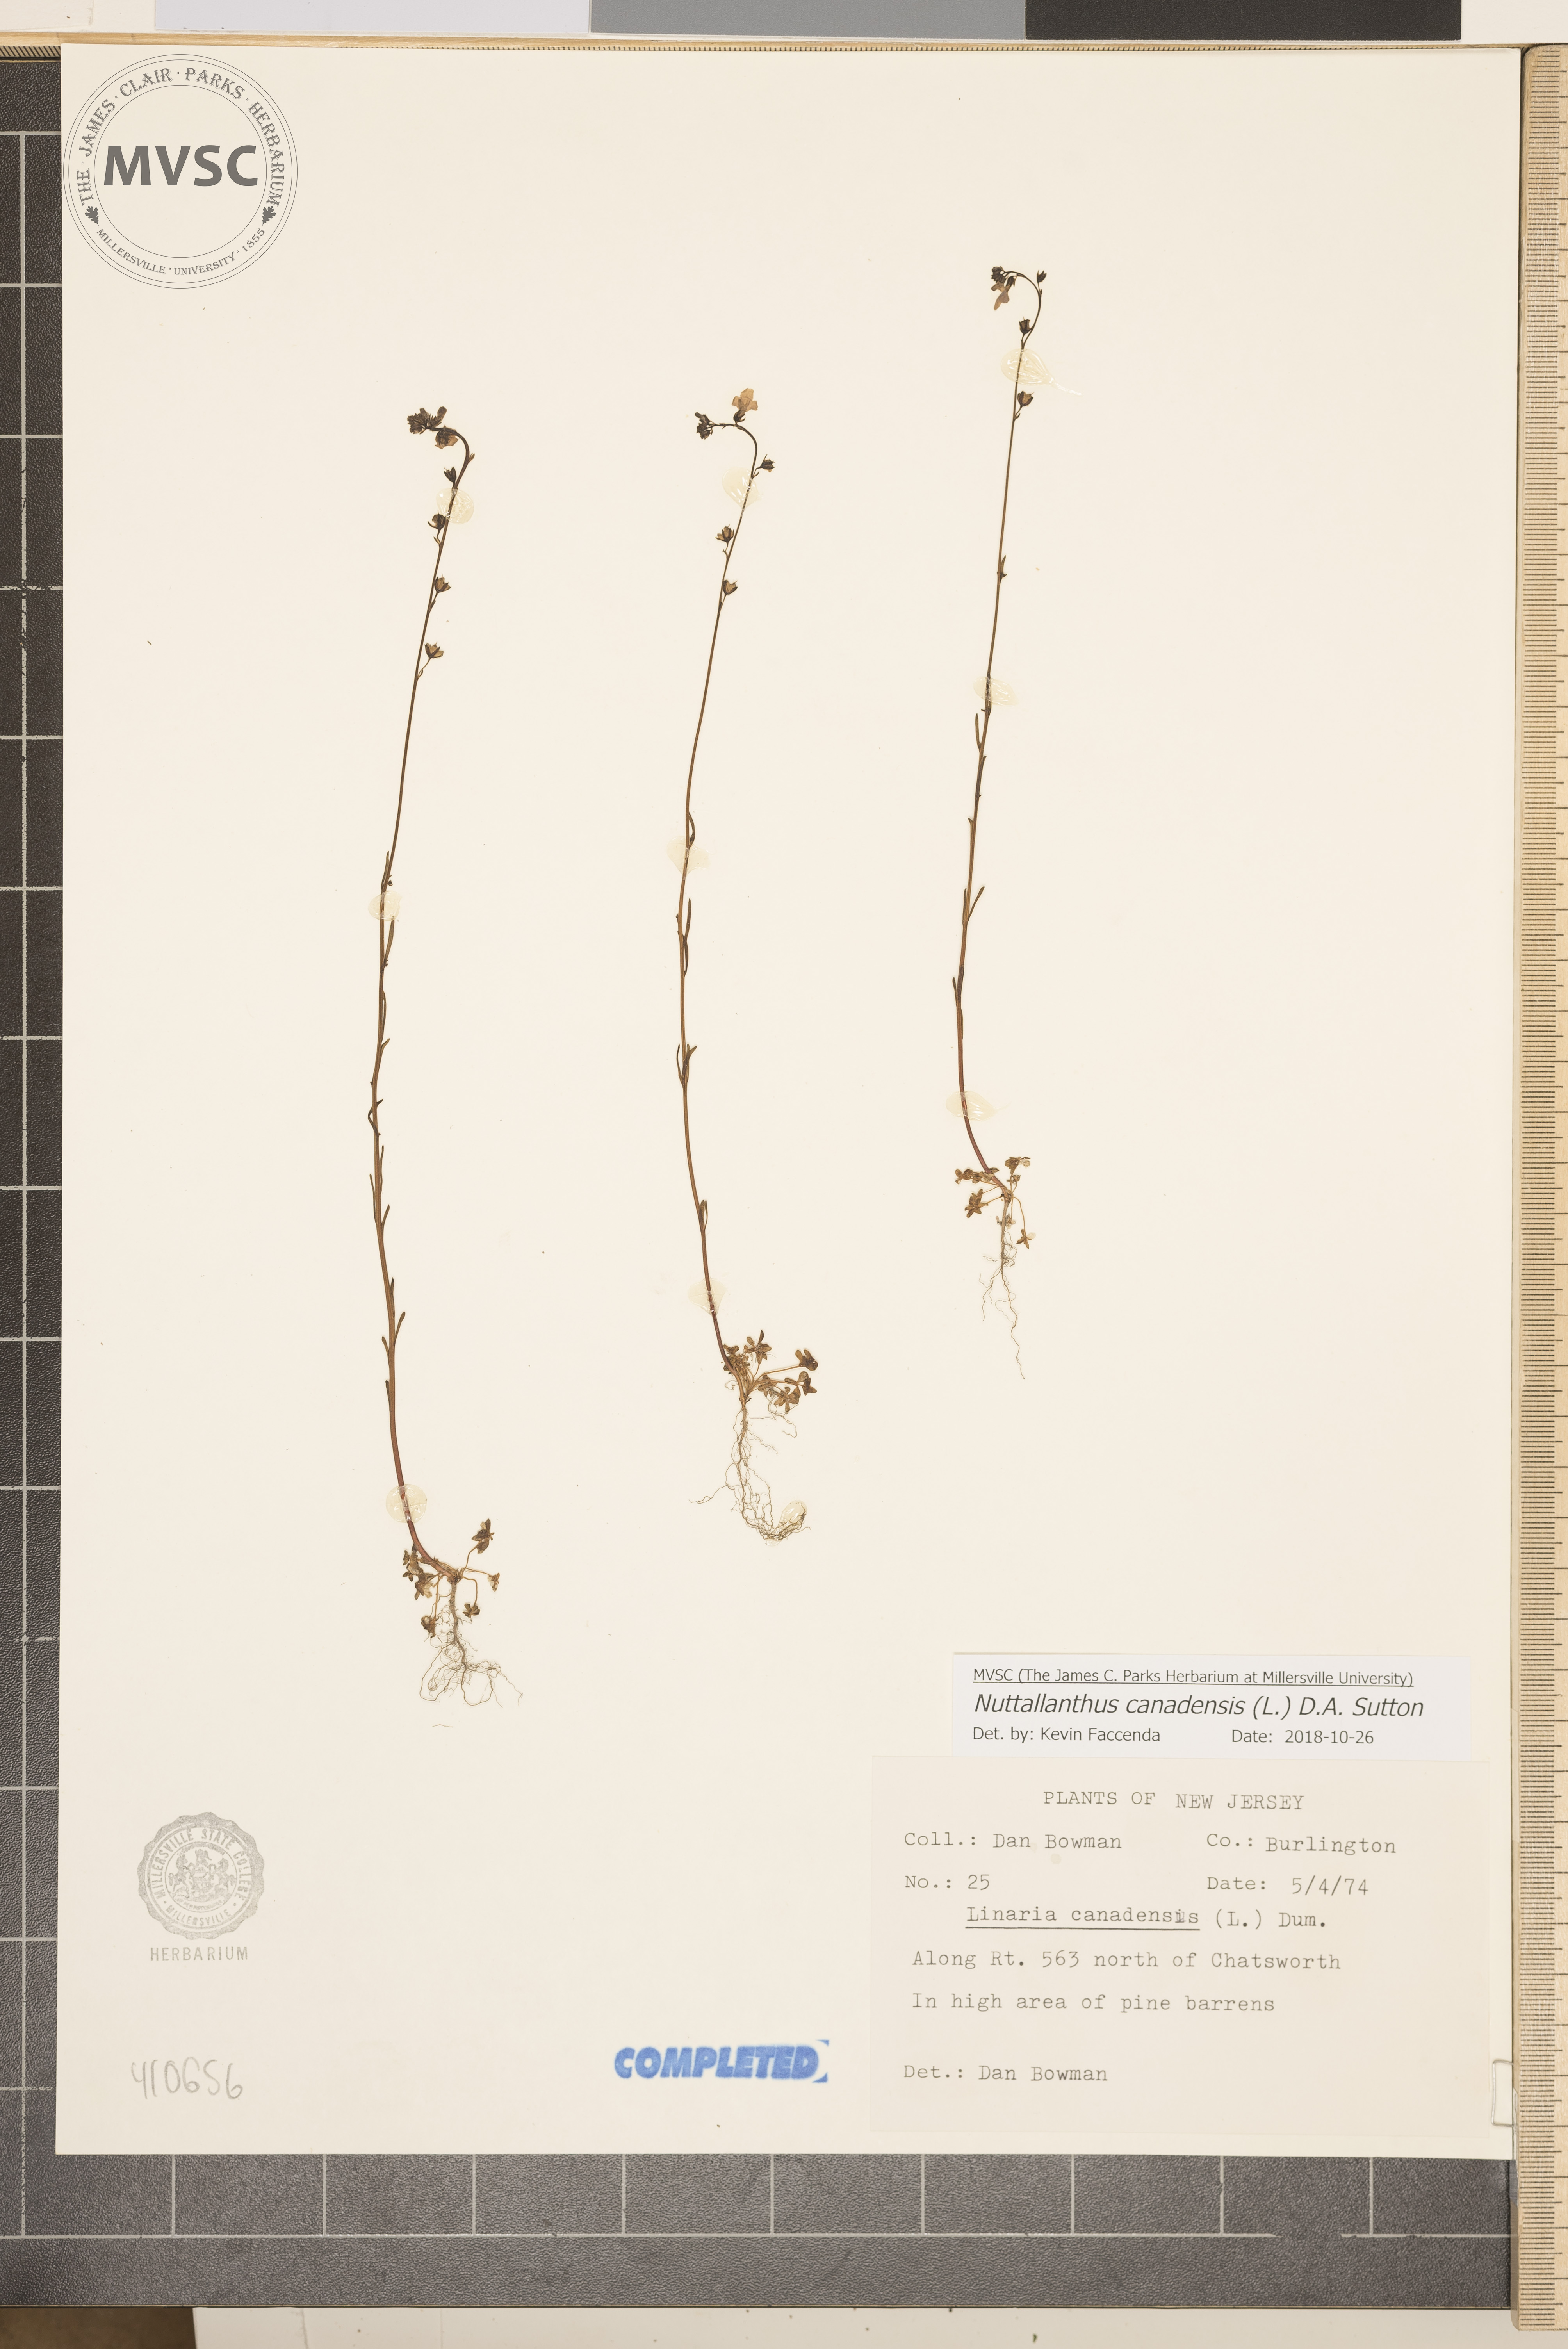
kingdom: Plantae
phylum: Tracheophyta
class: Magnoliopsida
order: Lamiales
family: Plantaginaceae
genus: Nuttallanthus
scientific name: Nuttallanthus canadensis
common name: Blue toadflax
